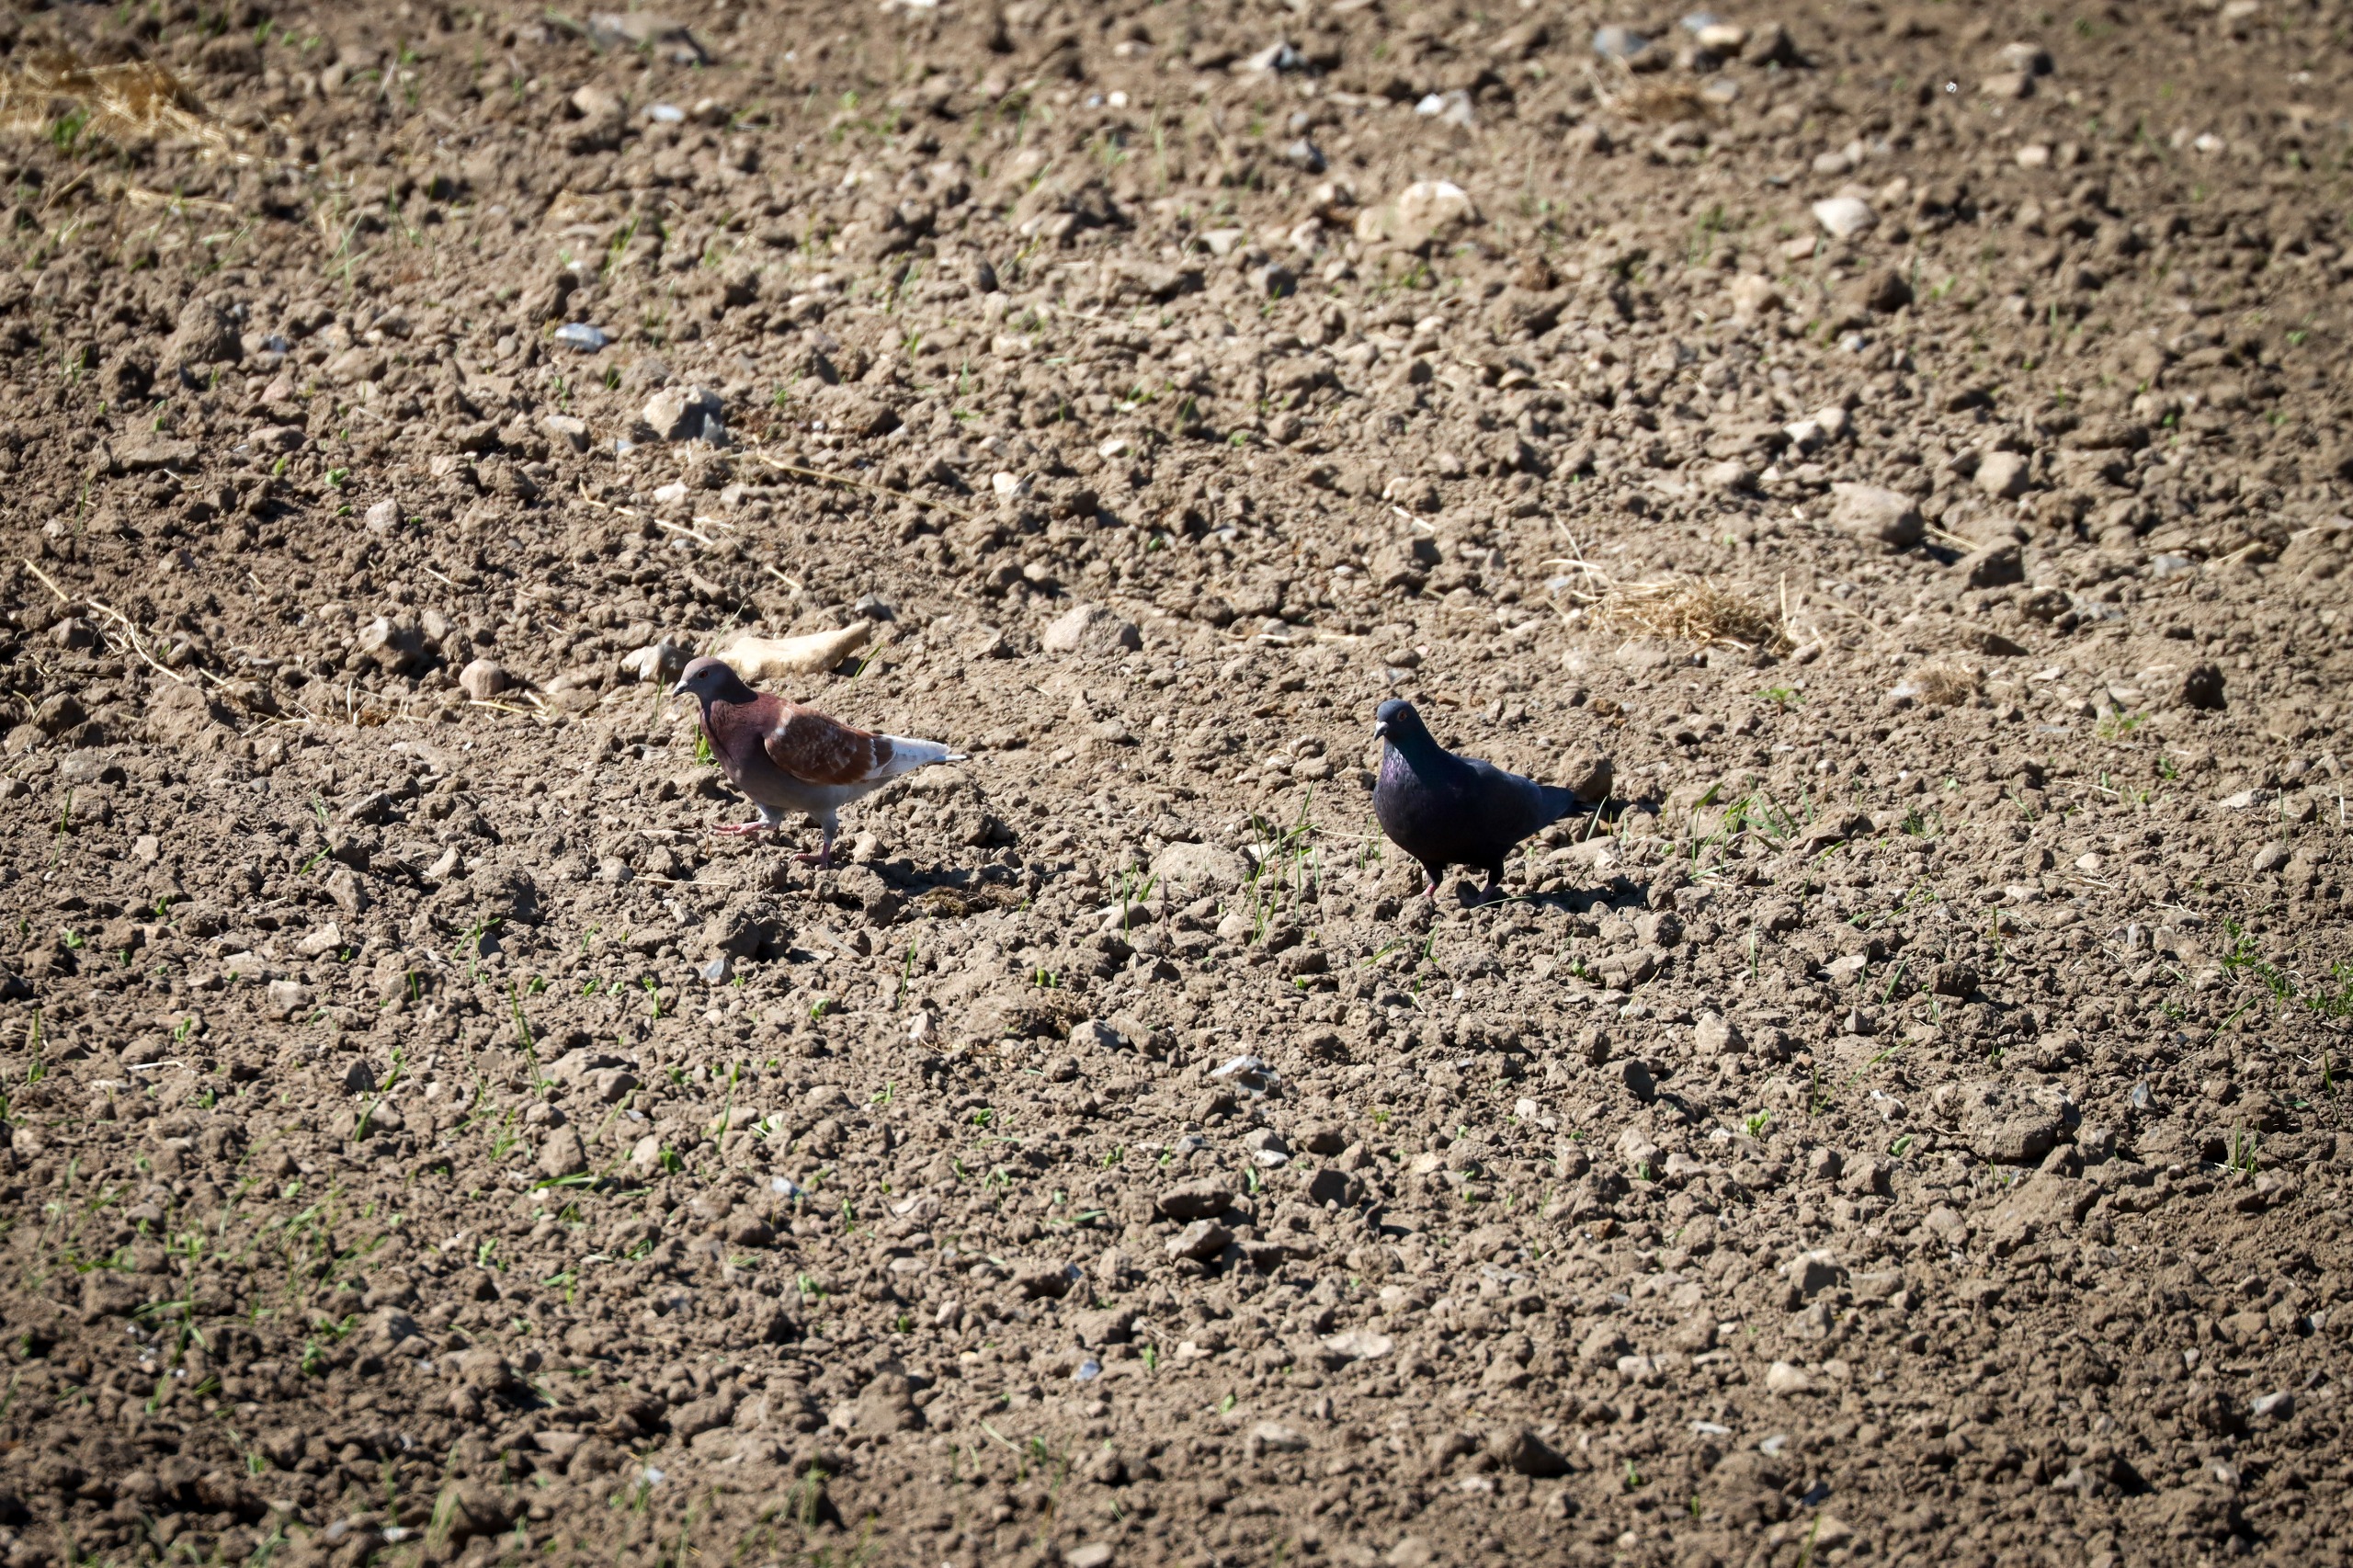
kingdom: Animalia
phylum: Chordata
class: Aves
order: Columbiformes
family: Columbidae
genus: Columba
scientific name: Columba livia
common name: Tamdue
